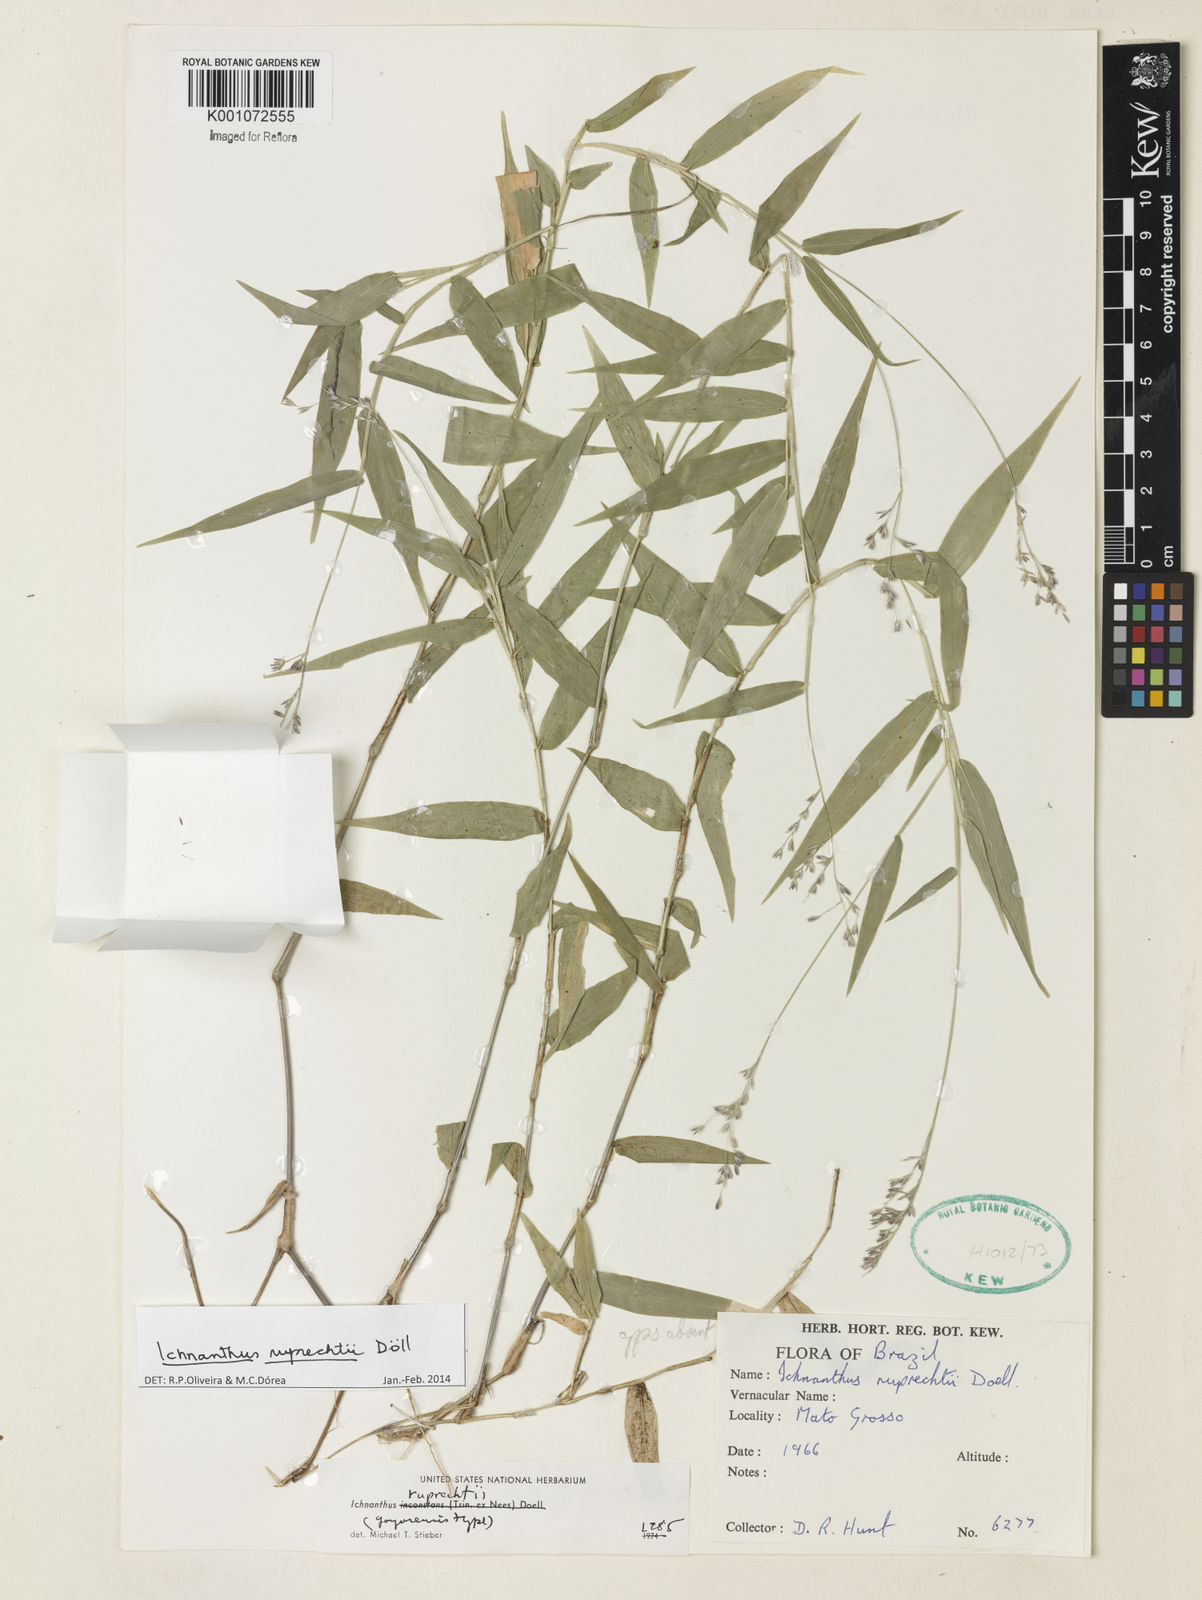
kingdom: Plantae
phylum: Tracheophyta
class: Liliopsida
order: Poales
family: Poaceae
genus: Ichnanthus
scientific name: Ichnanthus
